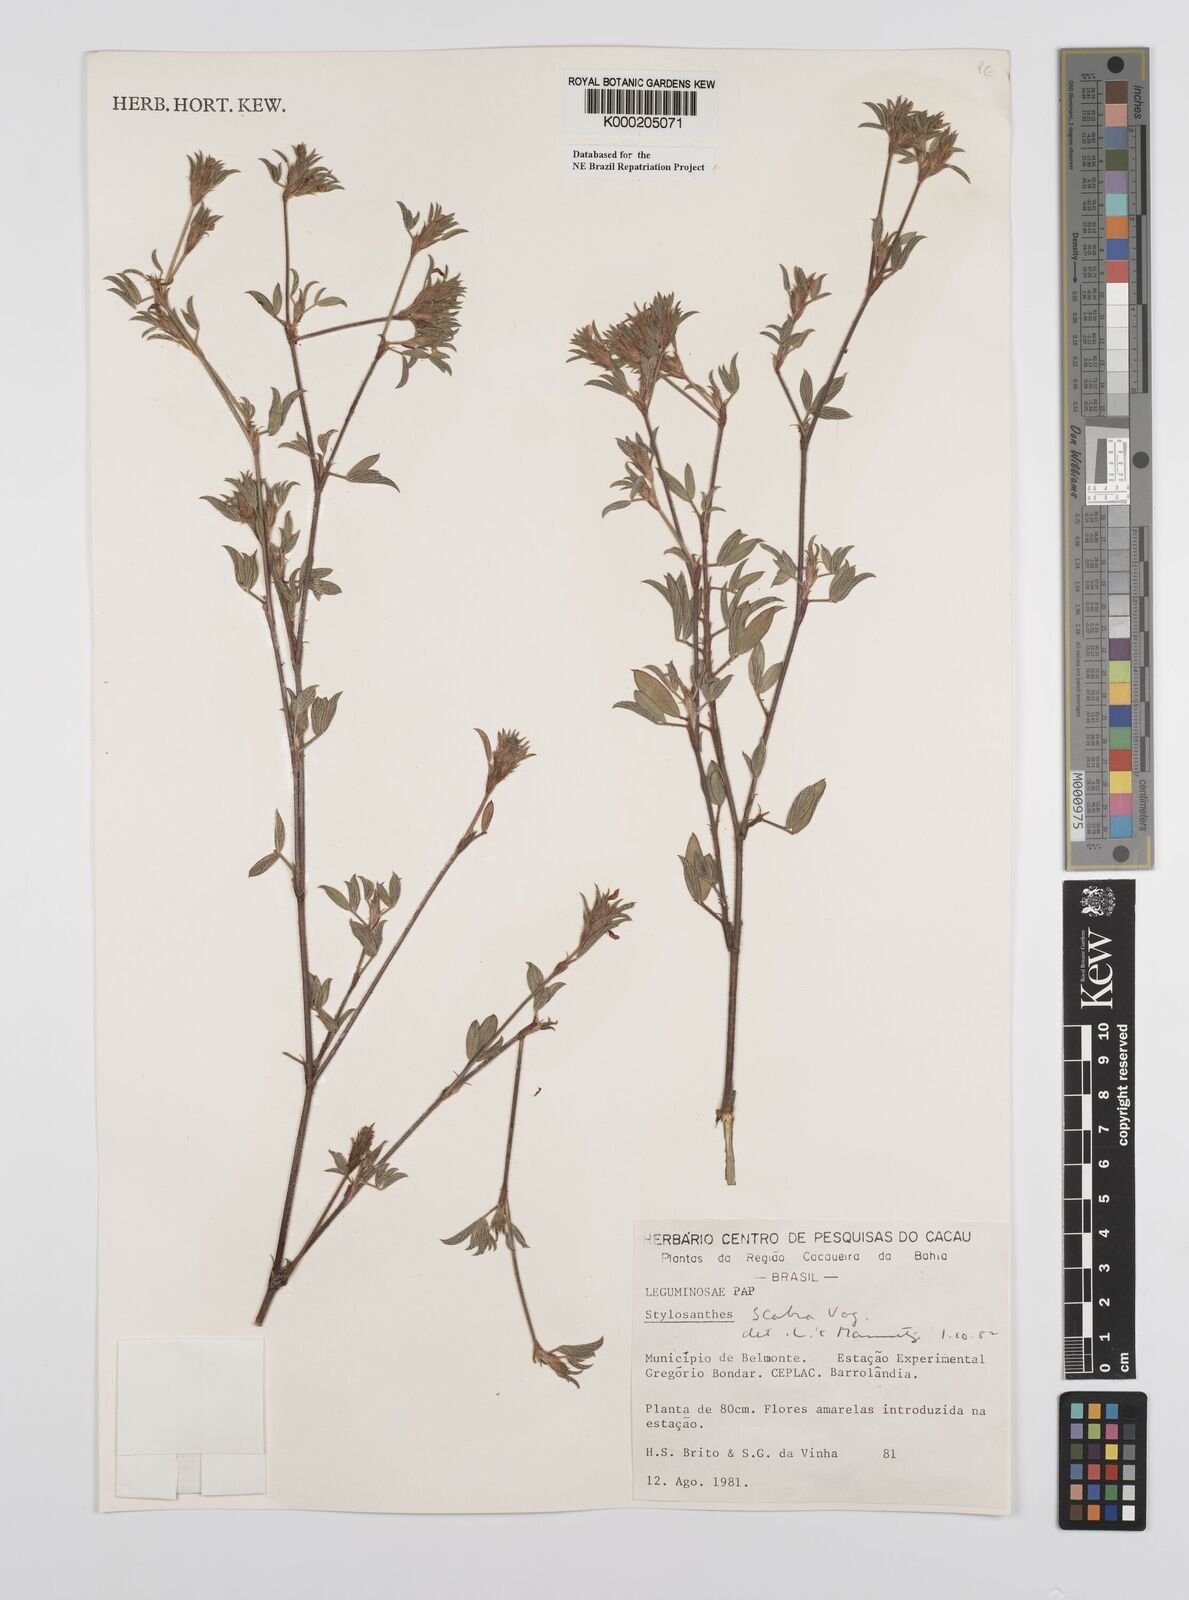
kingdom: Plantae
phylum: Tracheophyta
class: Magnoliopsida
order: Fabales
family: Fabaceae
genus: Stylosanthes
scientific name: Stylosanthes scabra
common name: Pencilflower
